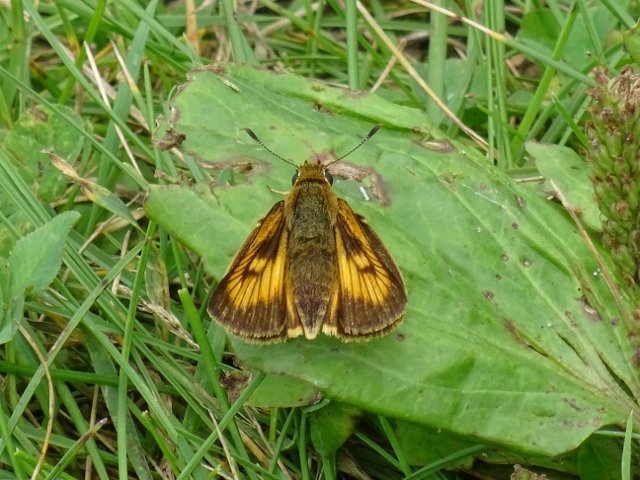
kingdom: Animalia
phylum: Arthropoda
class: Insecta
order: Lepidoptera
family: Hesperiidae
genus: Atrytone
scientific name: Atrytone delaware
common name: Delaware Skipper
